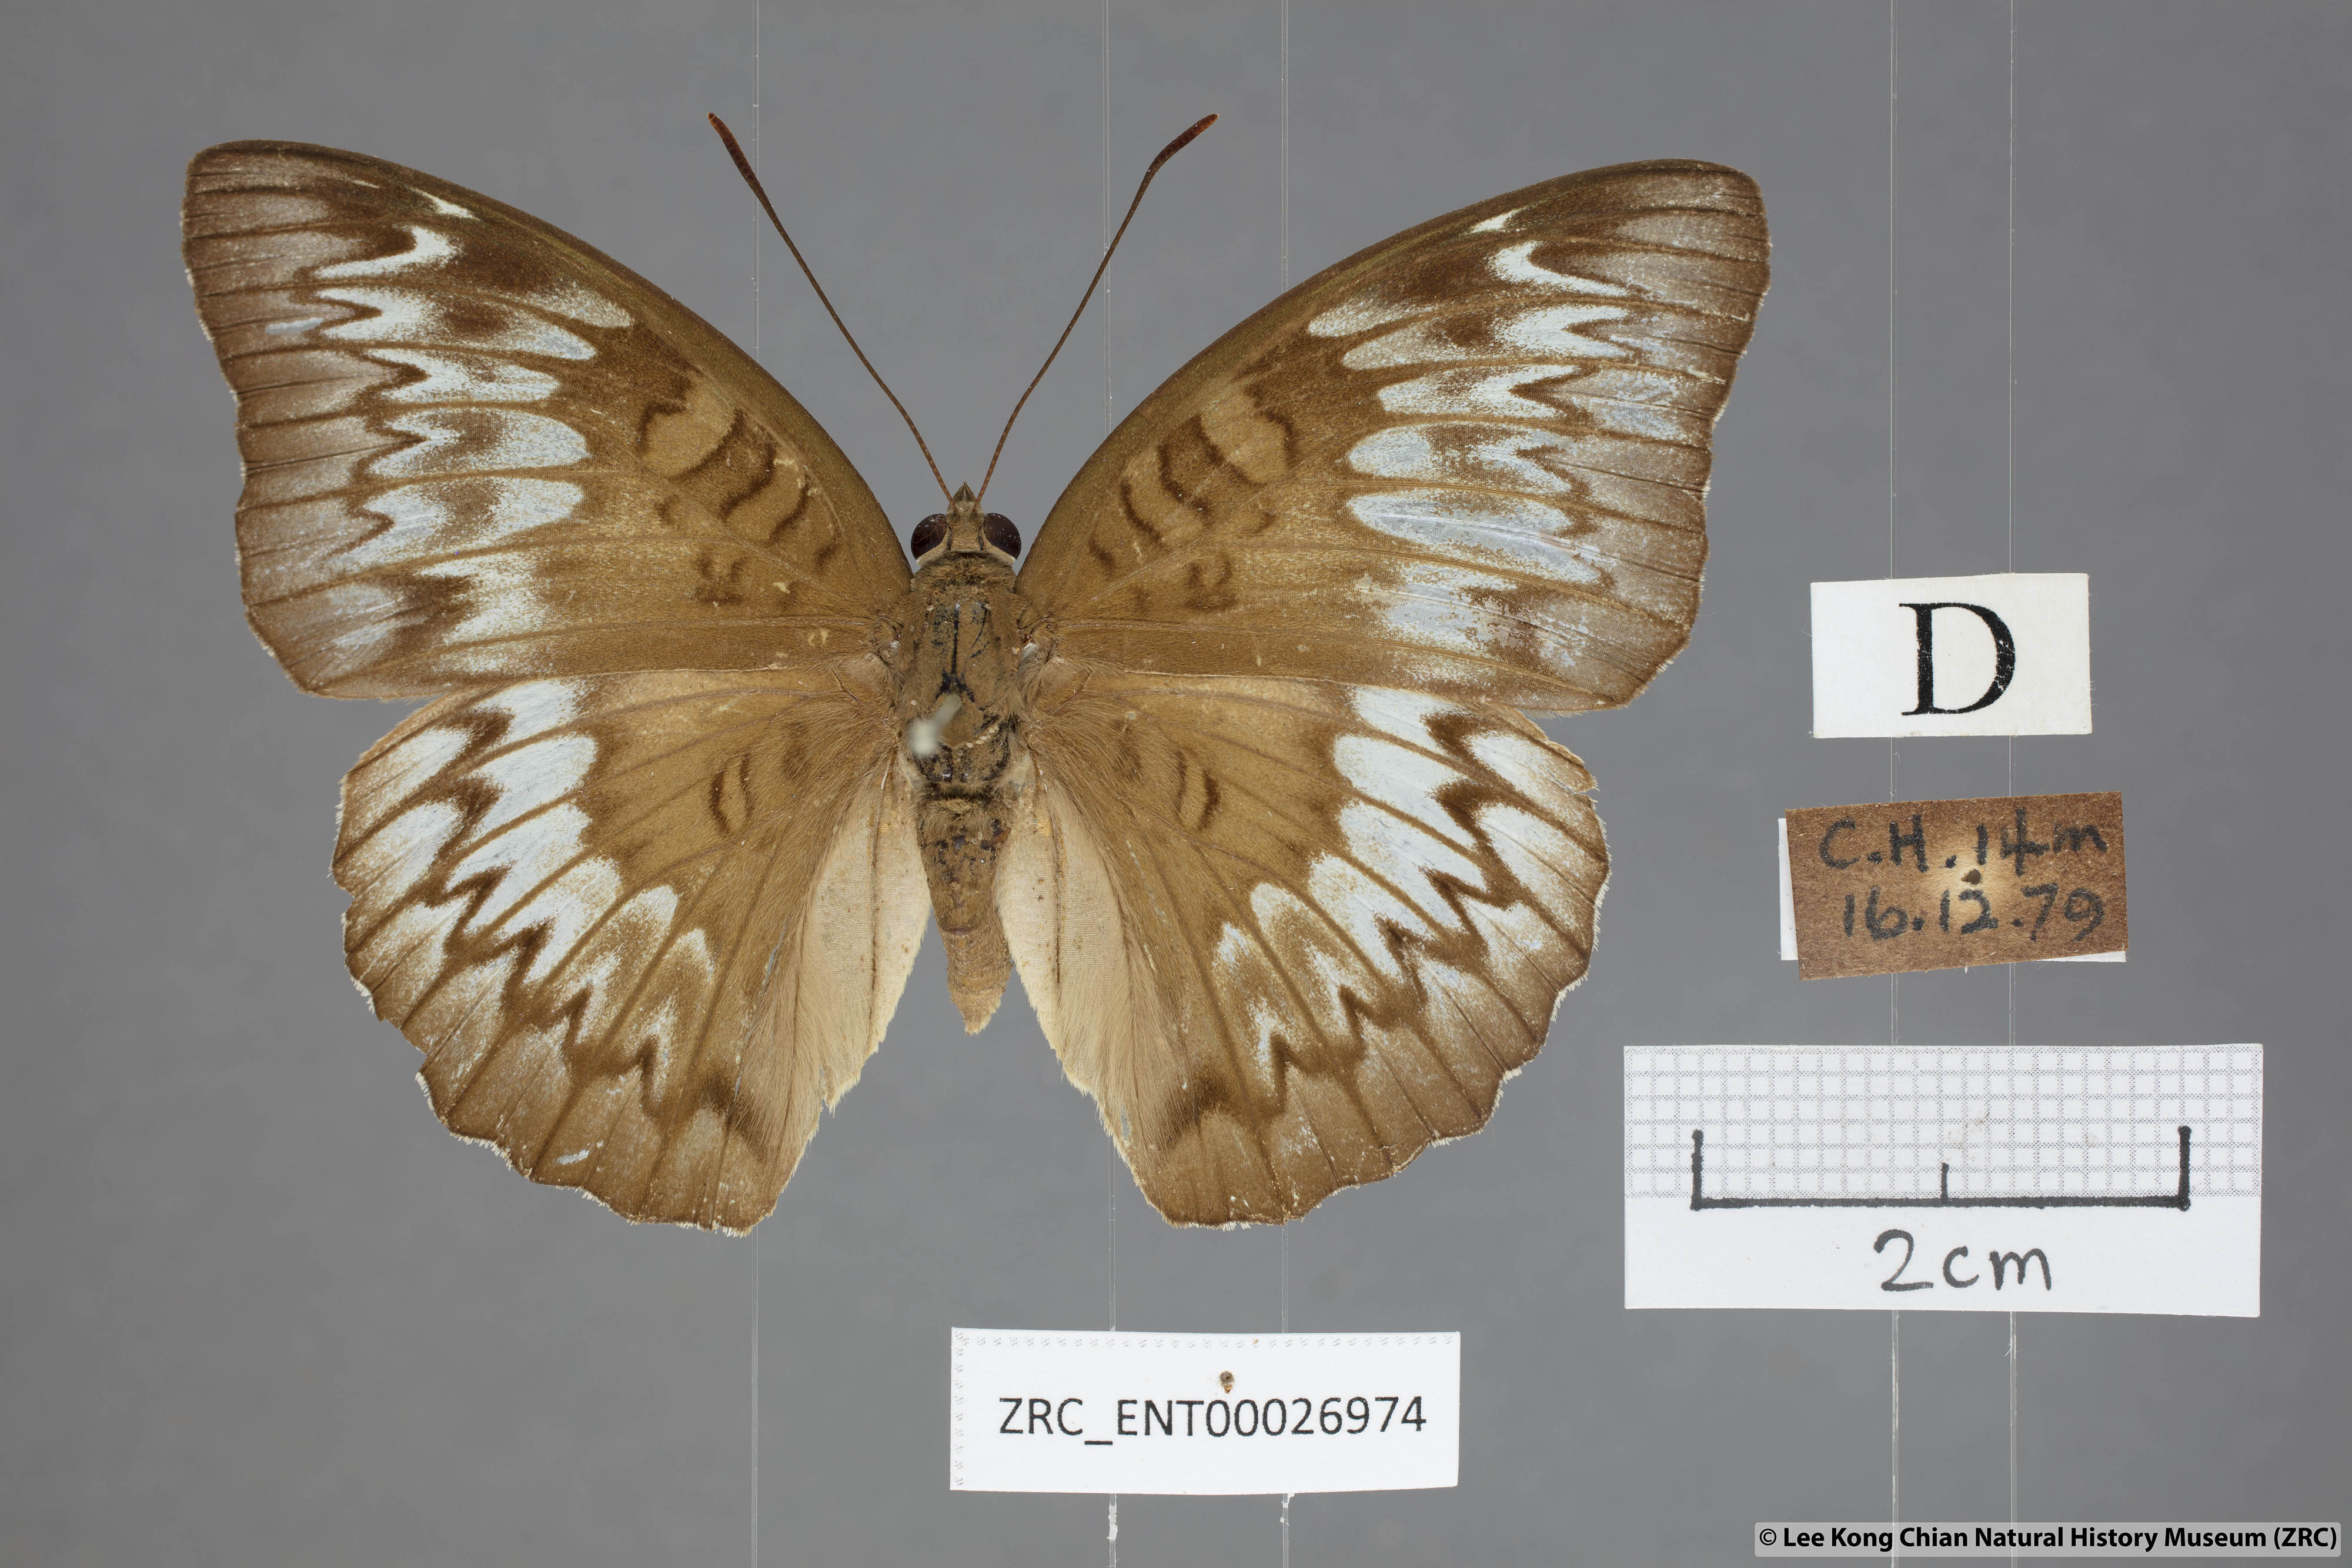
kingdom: Animalia
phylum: Arthropoda
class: Insecta
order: Lepidoptera
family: Nymphalidae
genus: Euthalia
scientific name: Euthalia monina
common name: Powdered baron
